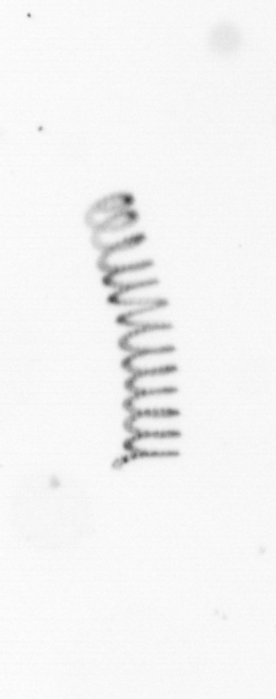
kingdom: Chromista
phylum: Ochrophyta
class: Bacillariophyceae
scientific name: Bacillariophyceae
